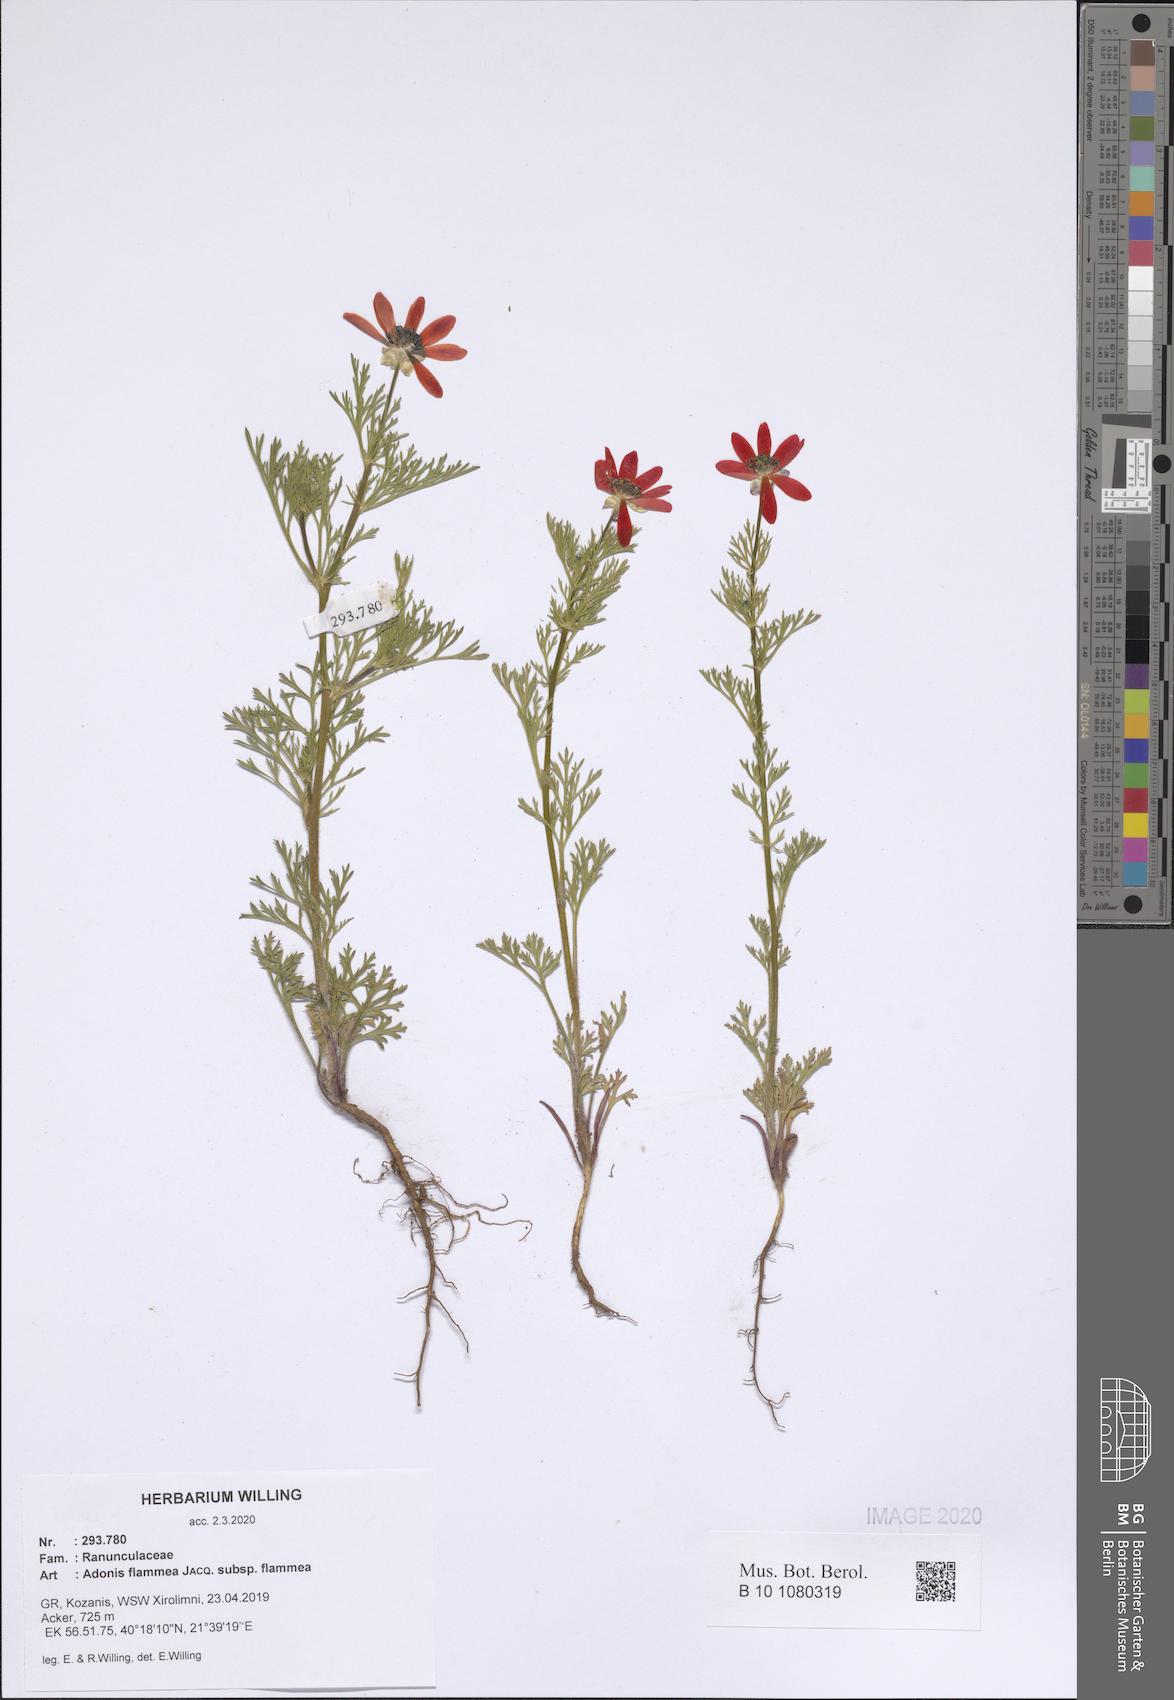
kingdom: Plantae
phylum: Tracheophyta
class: Magnoliopsida
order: Ranunculales
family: Ranunculaceae
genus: Adonis
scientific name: Adonis flammea
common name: Large pheasant's-eye
